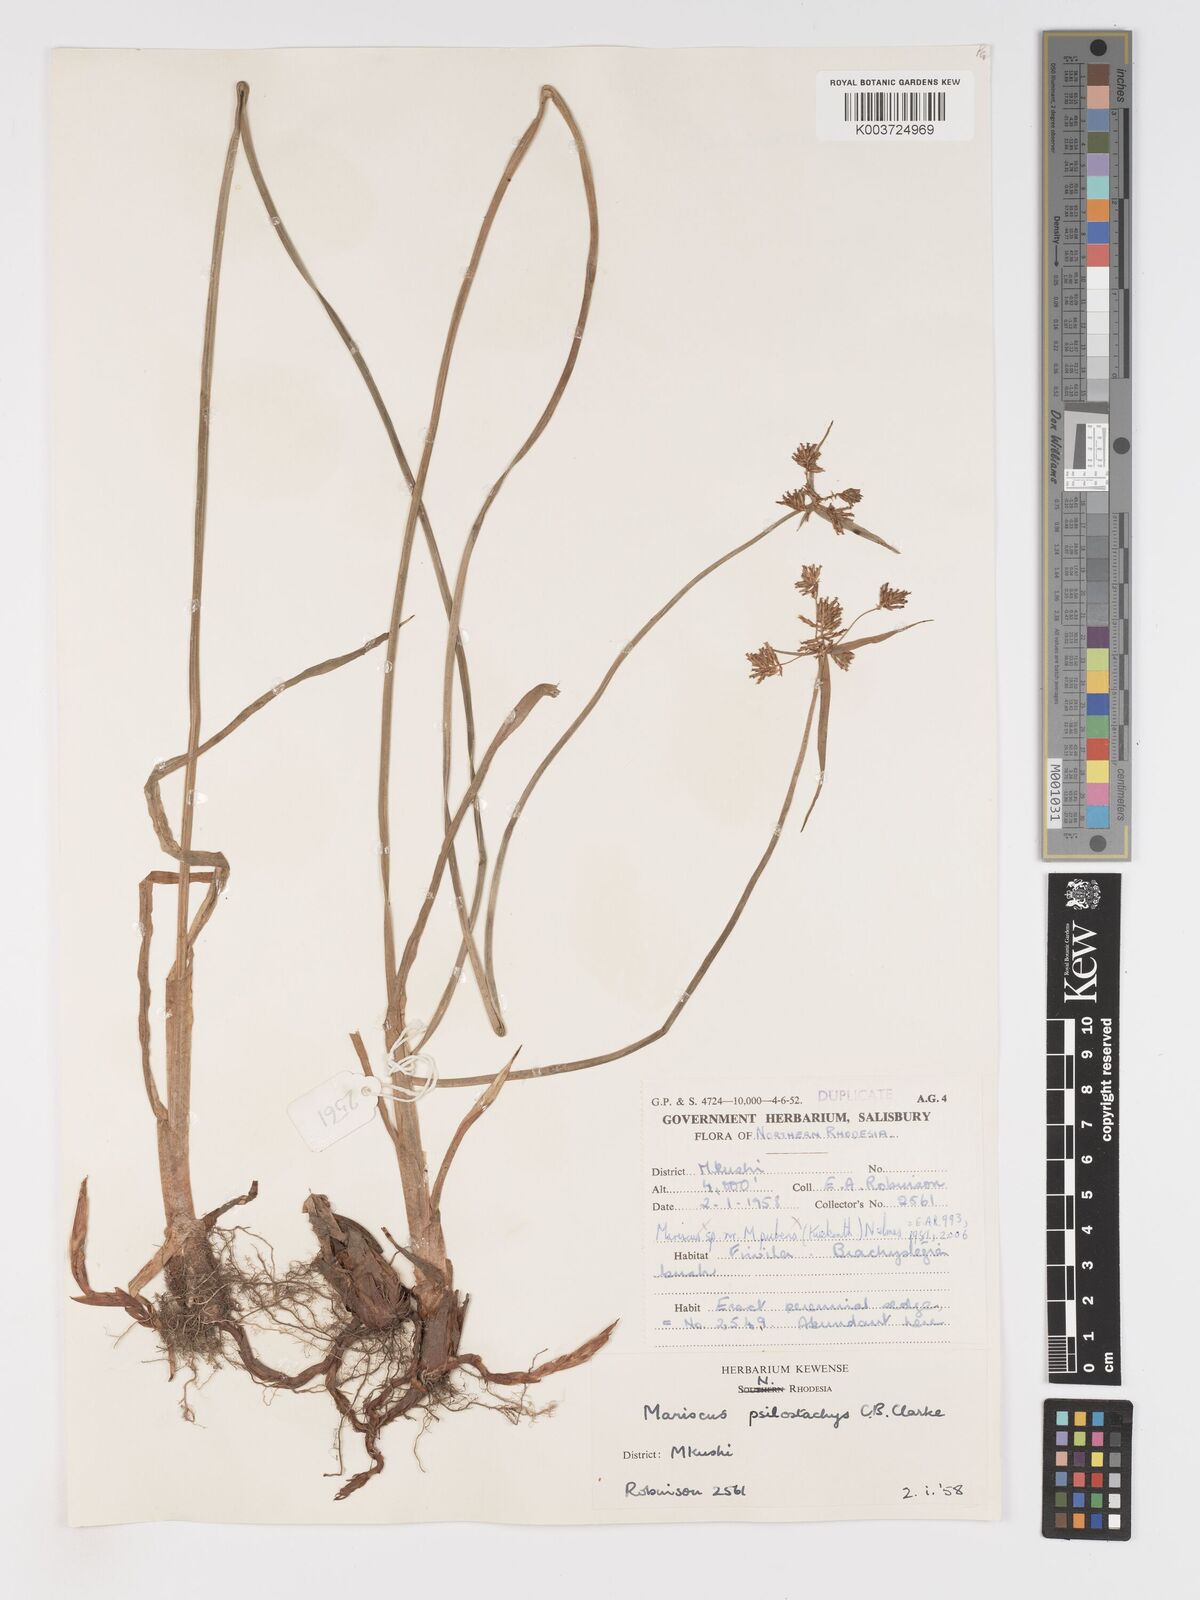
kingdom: Plantae
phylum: Tracheophyta
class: Liliopsida
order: Poales
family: Cyperaceae
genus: Cyperus
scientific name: Cyperus trigonellus
